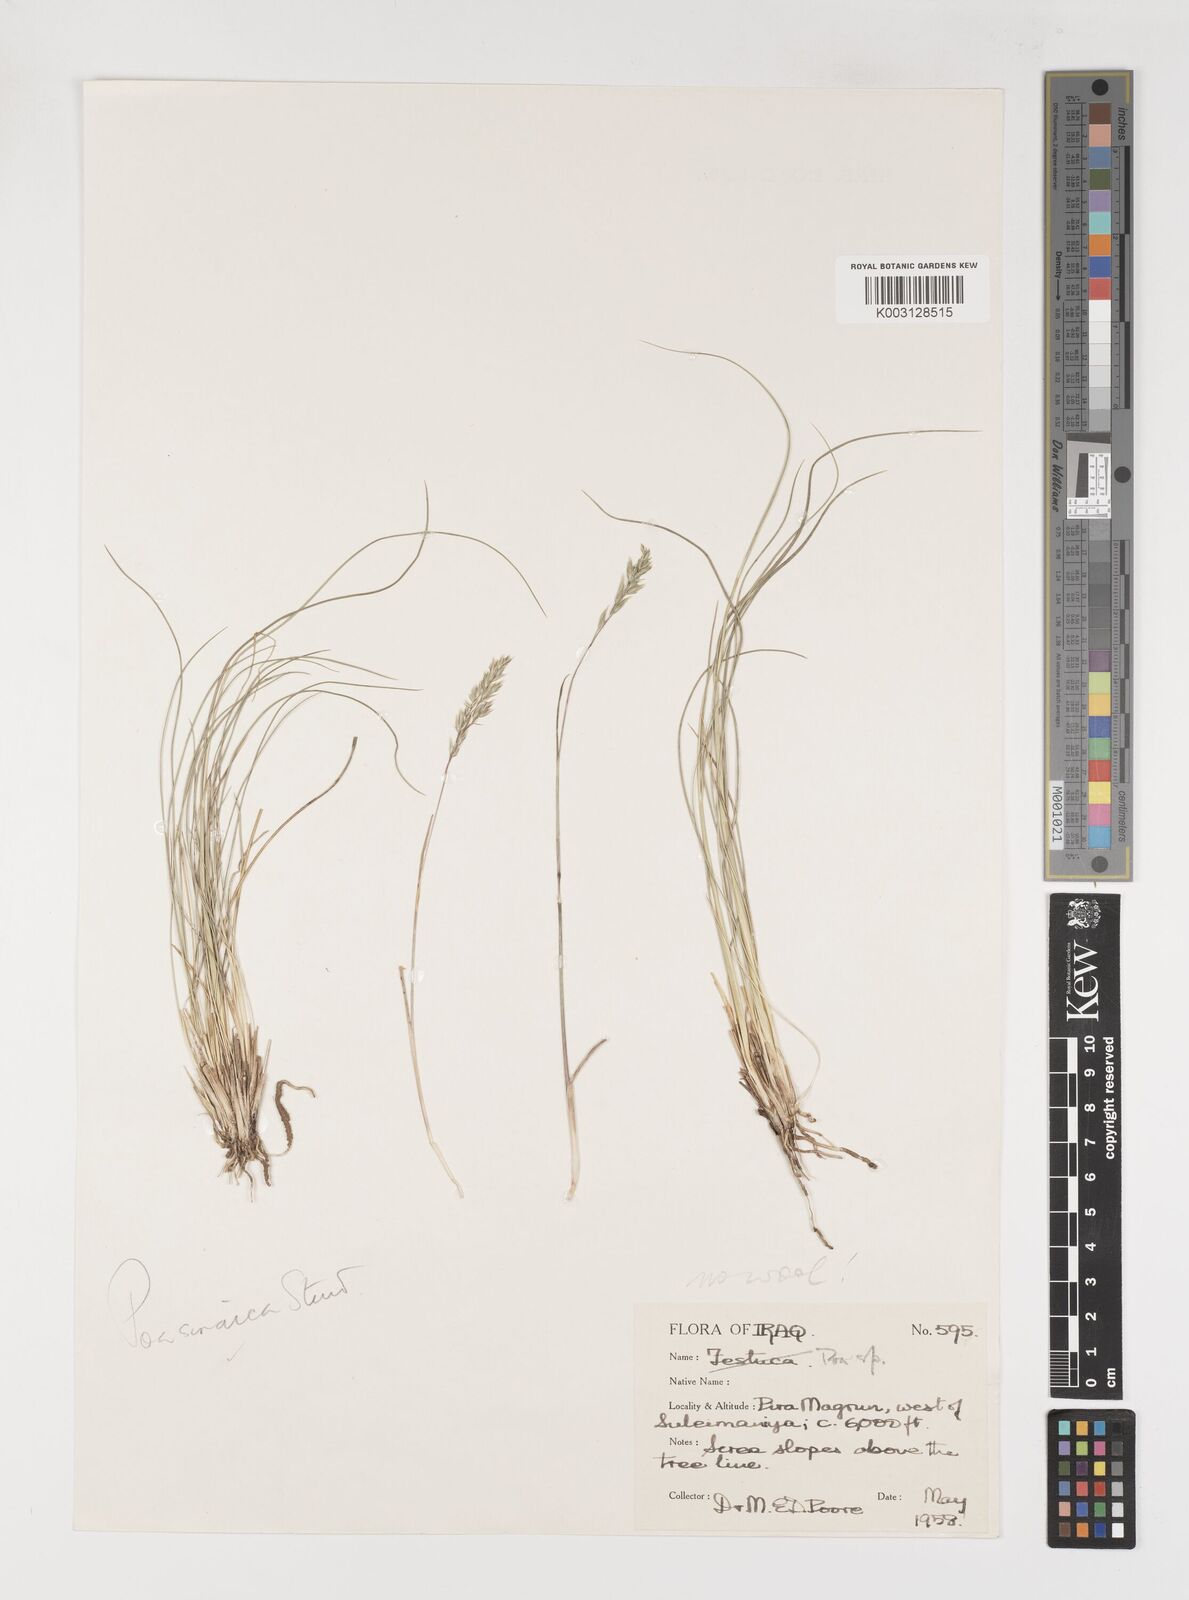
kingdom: Plantae
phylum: Tracheophyta
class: Liliopsida
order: Poales
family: Poaceae
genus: Poa
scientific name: Poa sinaica
